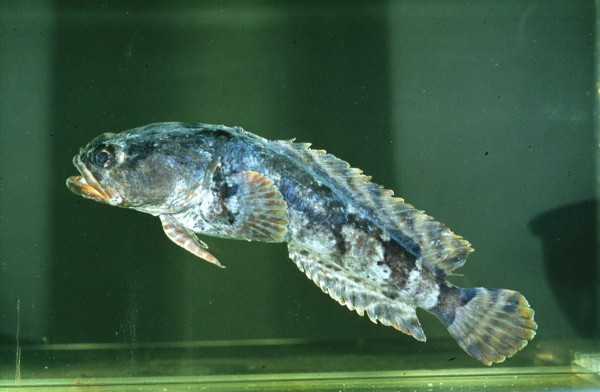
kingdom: Animalia
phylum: Chordata
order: Batrachoidiformes
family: Batrachoididae
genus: Austrobatrachus
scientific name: Austrobatrachus foedus
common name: Puzzled toadfish
